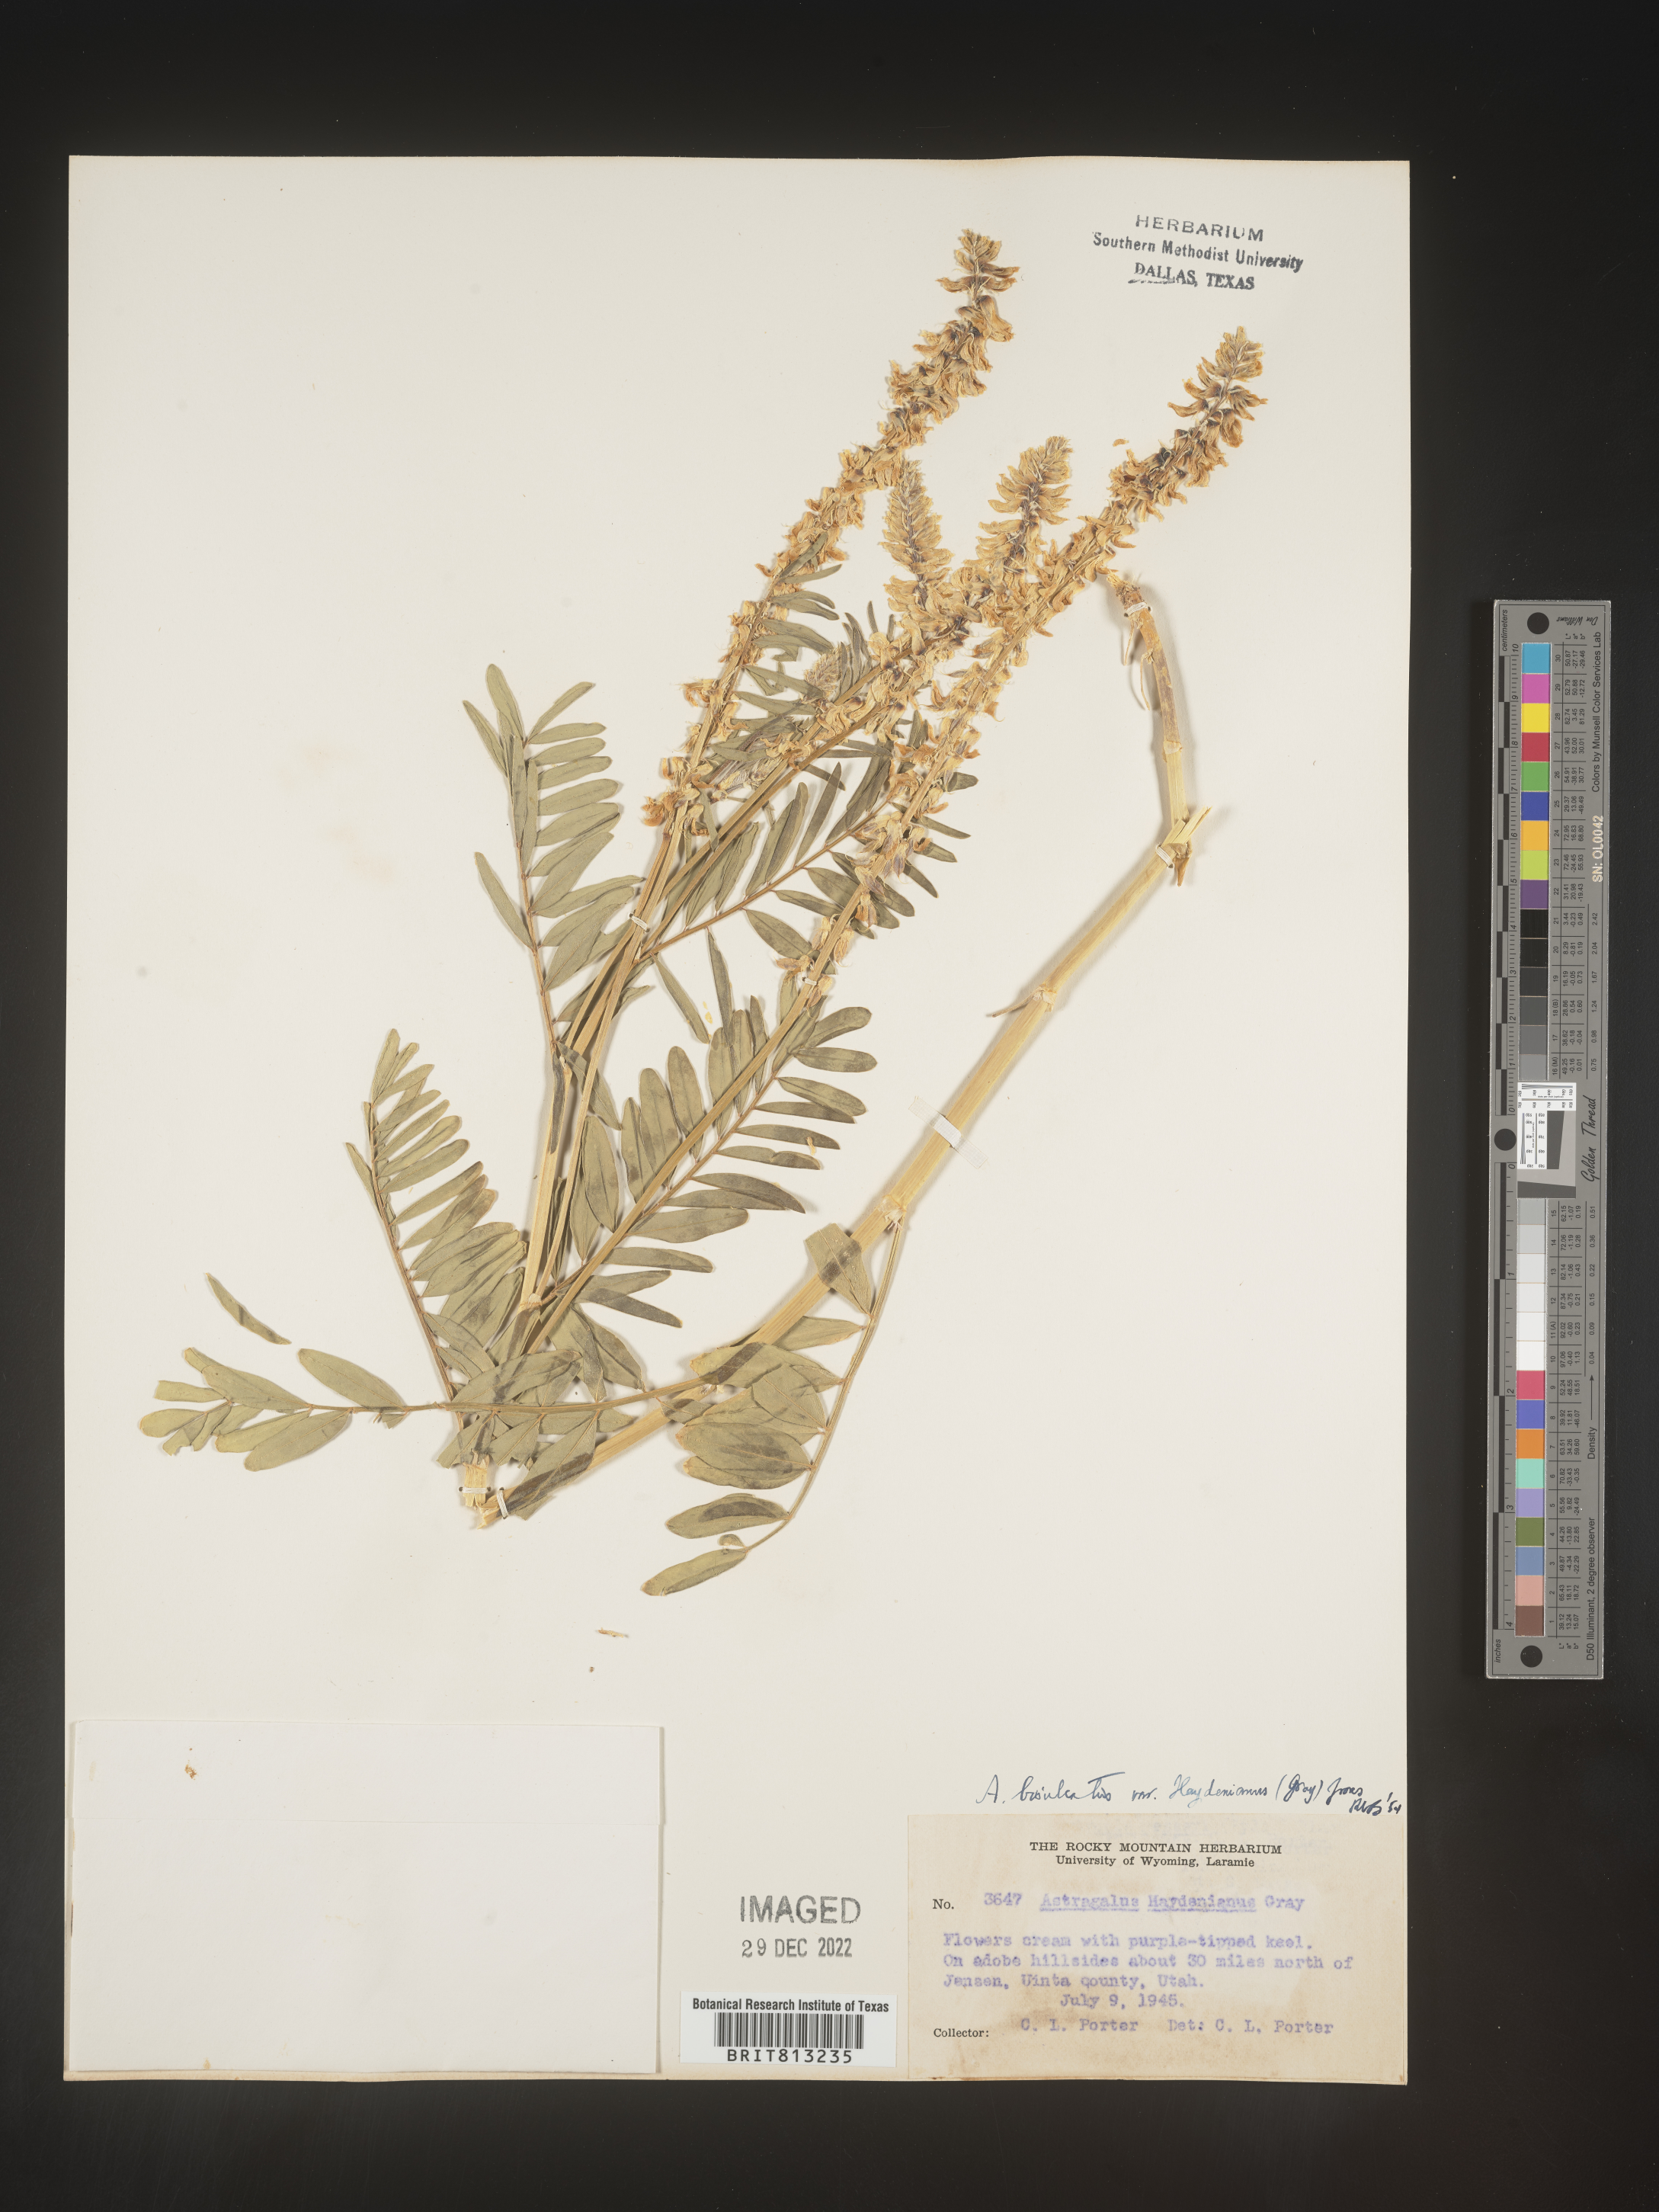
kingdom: Plantae
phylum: Tracheophyta
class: Magnoliopsida
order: Fabales
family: Fabaceae
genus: Astragalus
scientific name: Astragalus bisulcatus
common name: Two-groove milk-vetch
